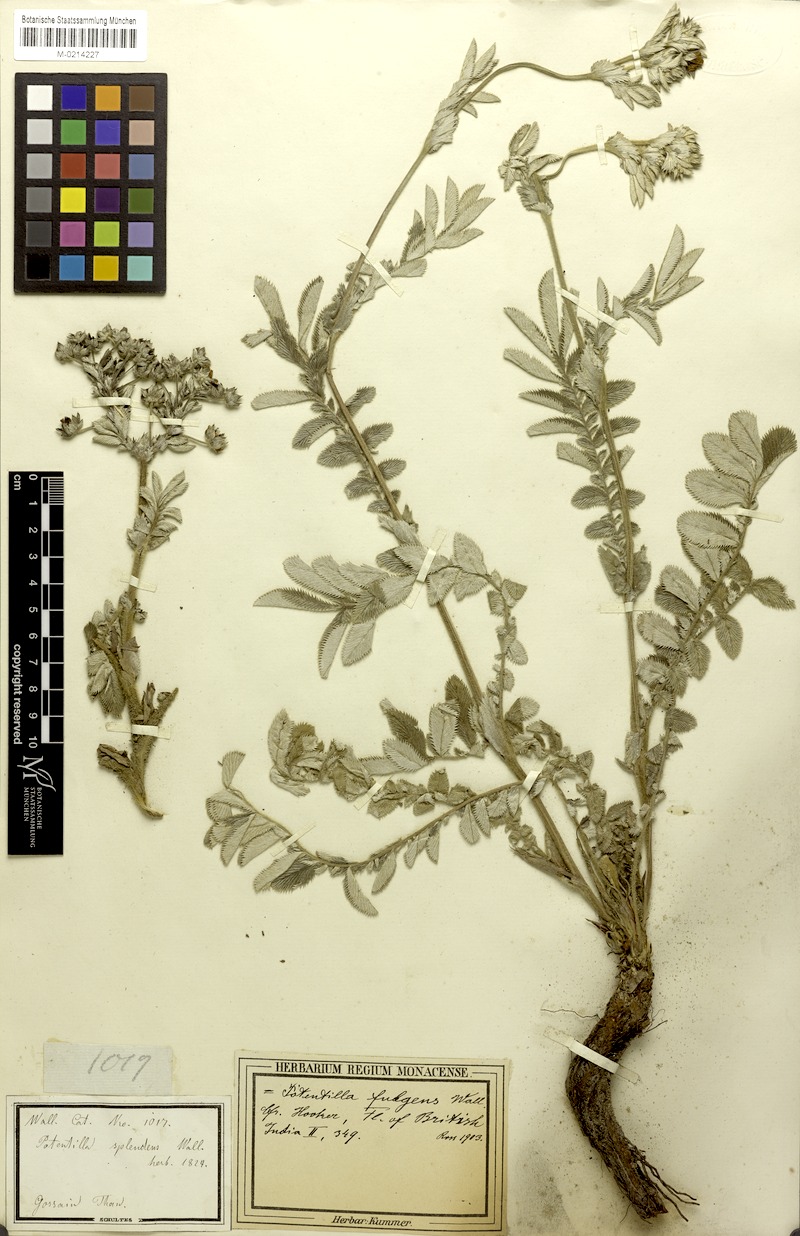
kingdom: Plantae
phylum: Tracheophyta
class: Magnoliopsida
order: Rosales
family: Rosaceae
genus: Argentina
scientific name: Argentina lineata
